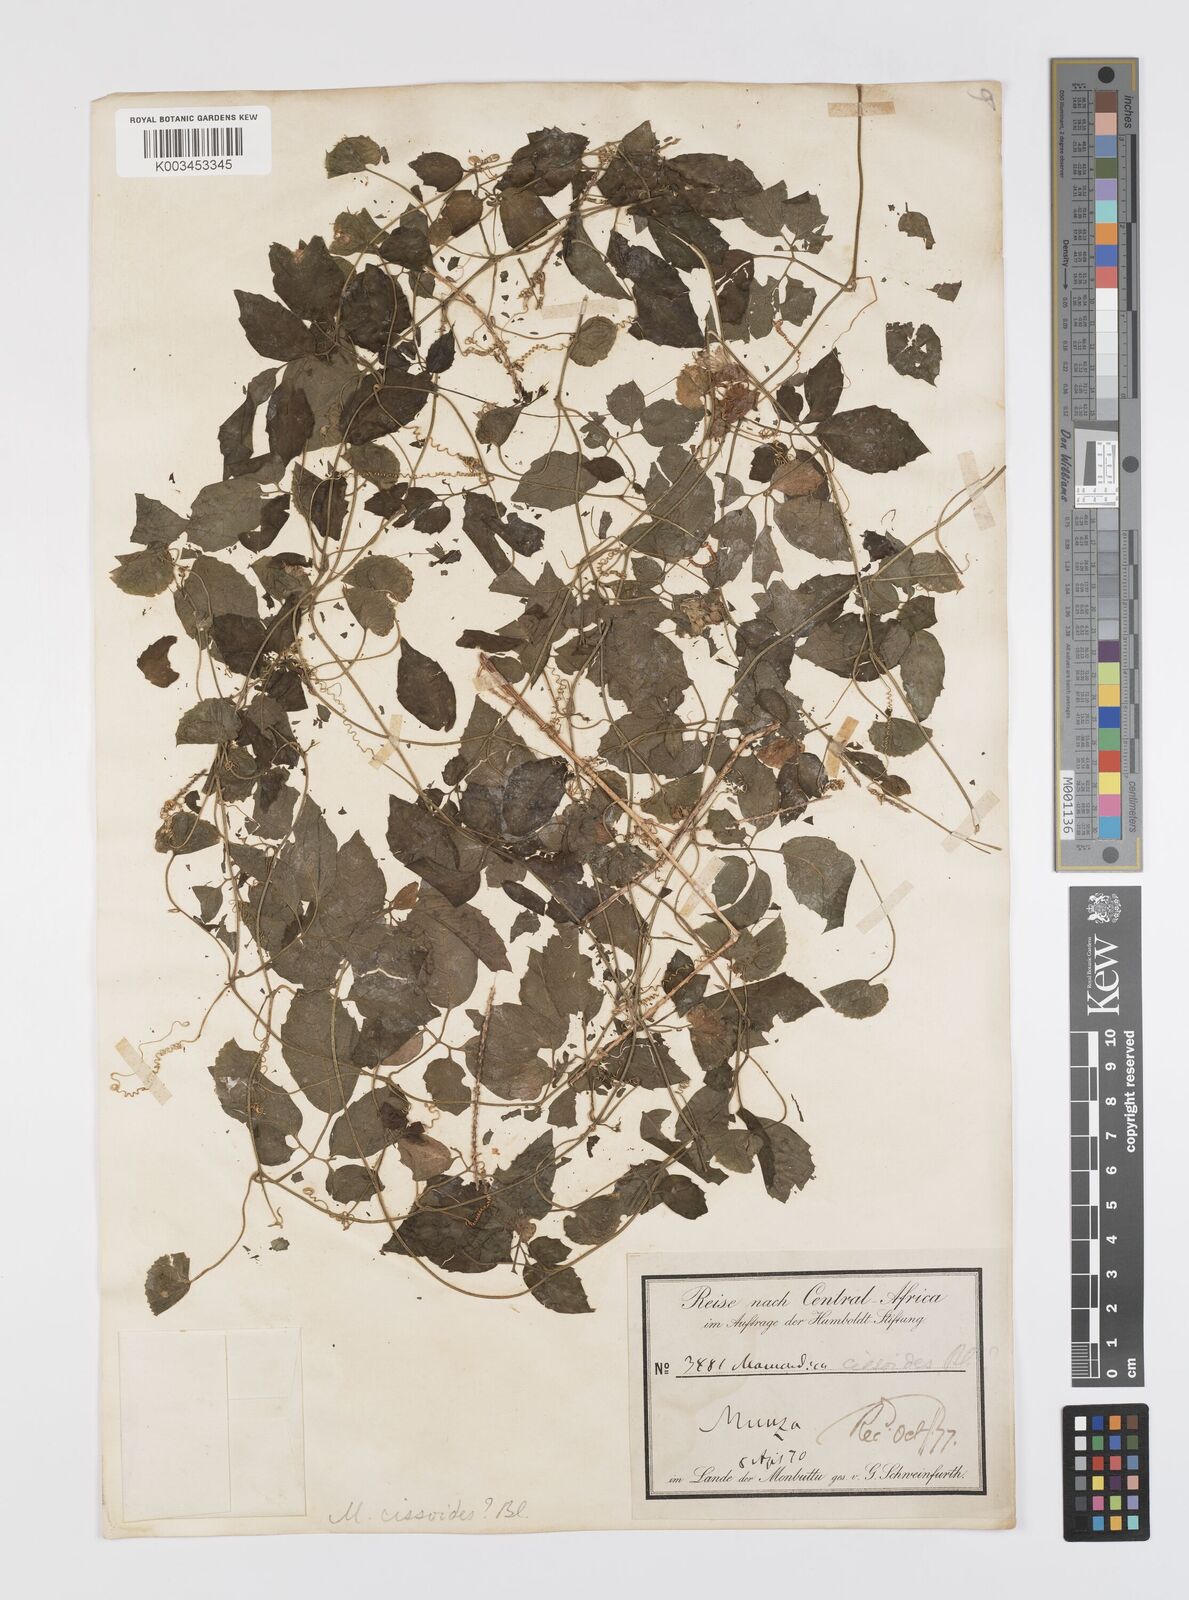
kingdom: Plantae
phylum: Tracheophyta
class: Magnoliopsida
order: Cucurbitales
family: Cucurbitaceae
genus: Momordica
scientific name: Momordica cissoides
